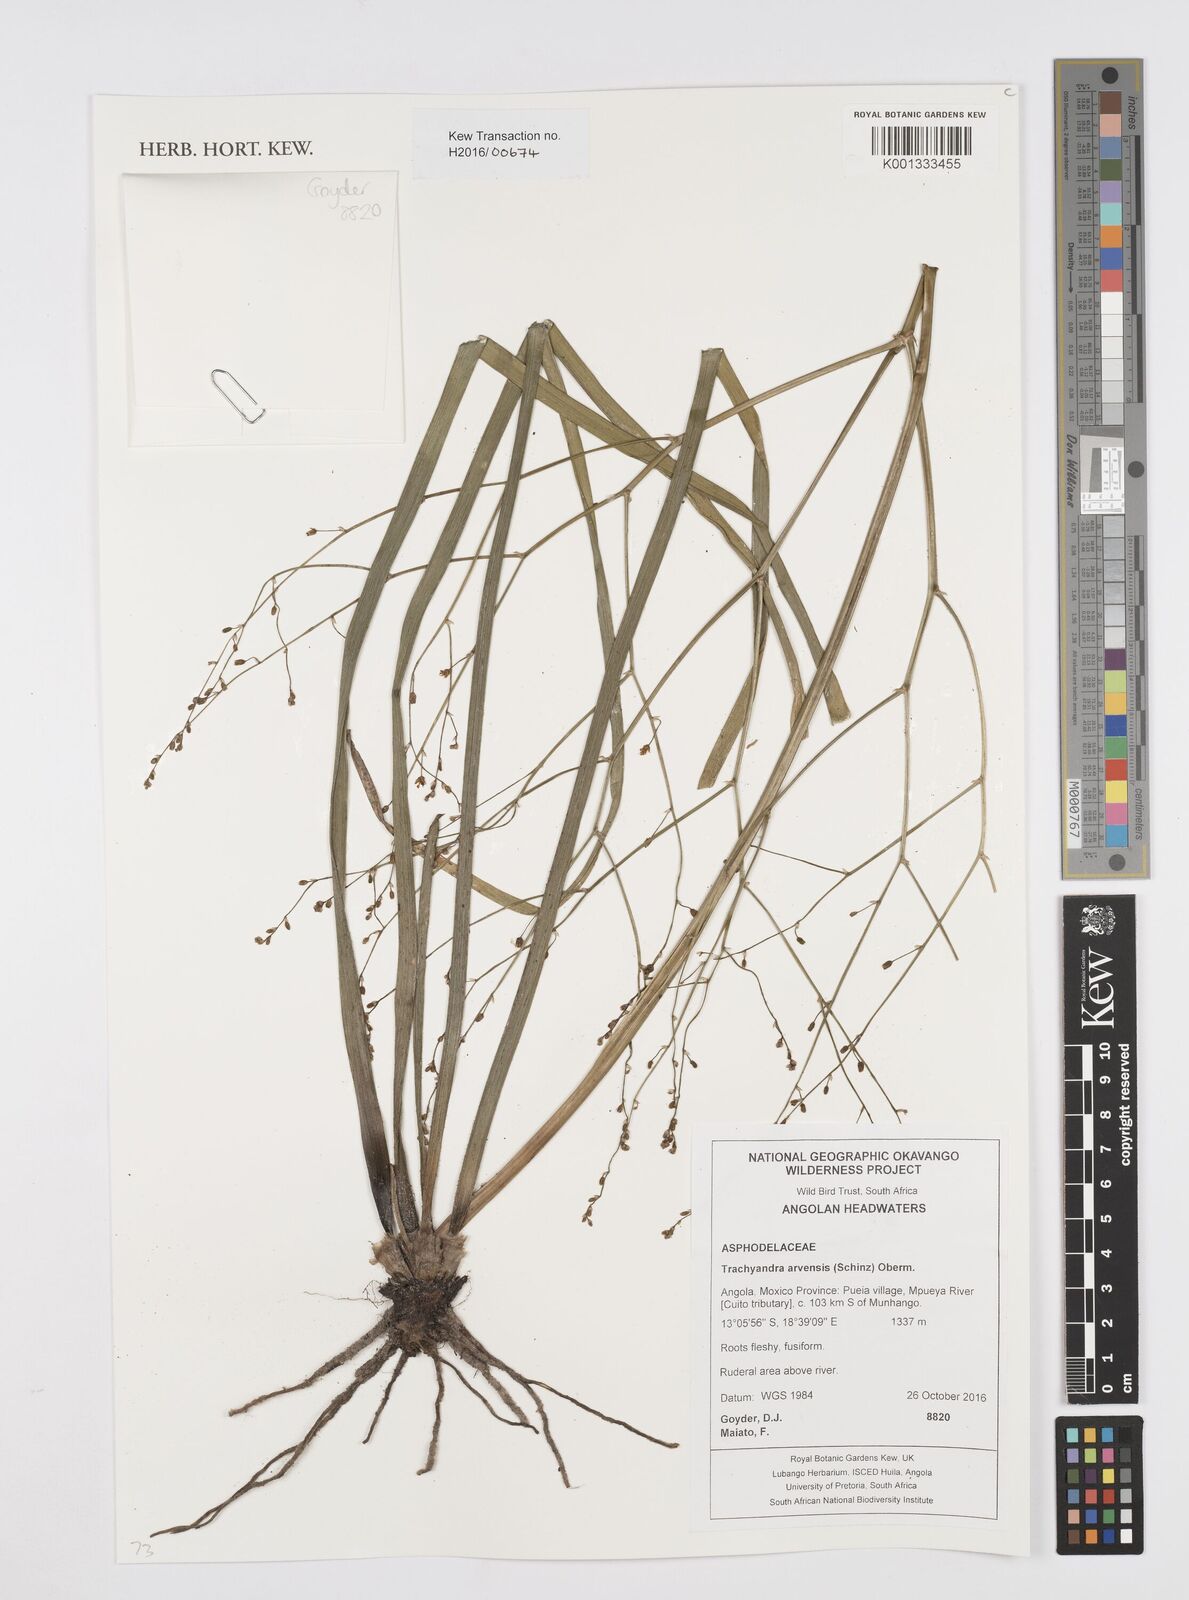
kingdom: Plantae
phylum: Tracheophyta
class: Liliopsida
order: Asparagales
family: Asphodelaceae
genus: Trachyandra
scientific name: Trachyandra arvensis
